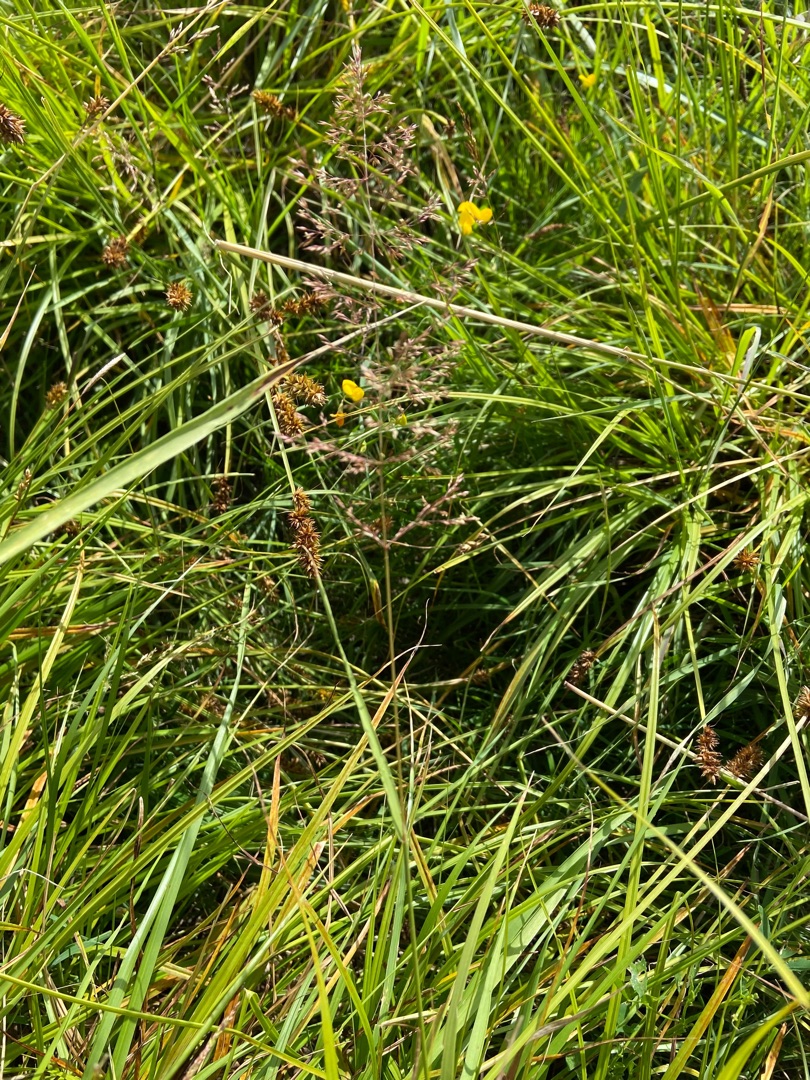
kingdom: Plantae
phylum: Tracheophyta
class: Liliopsida
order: Poales
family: Poaceae
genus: Agrostis
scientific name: Agrostis stolonifera
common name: Kryb-hvene
